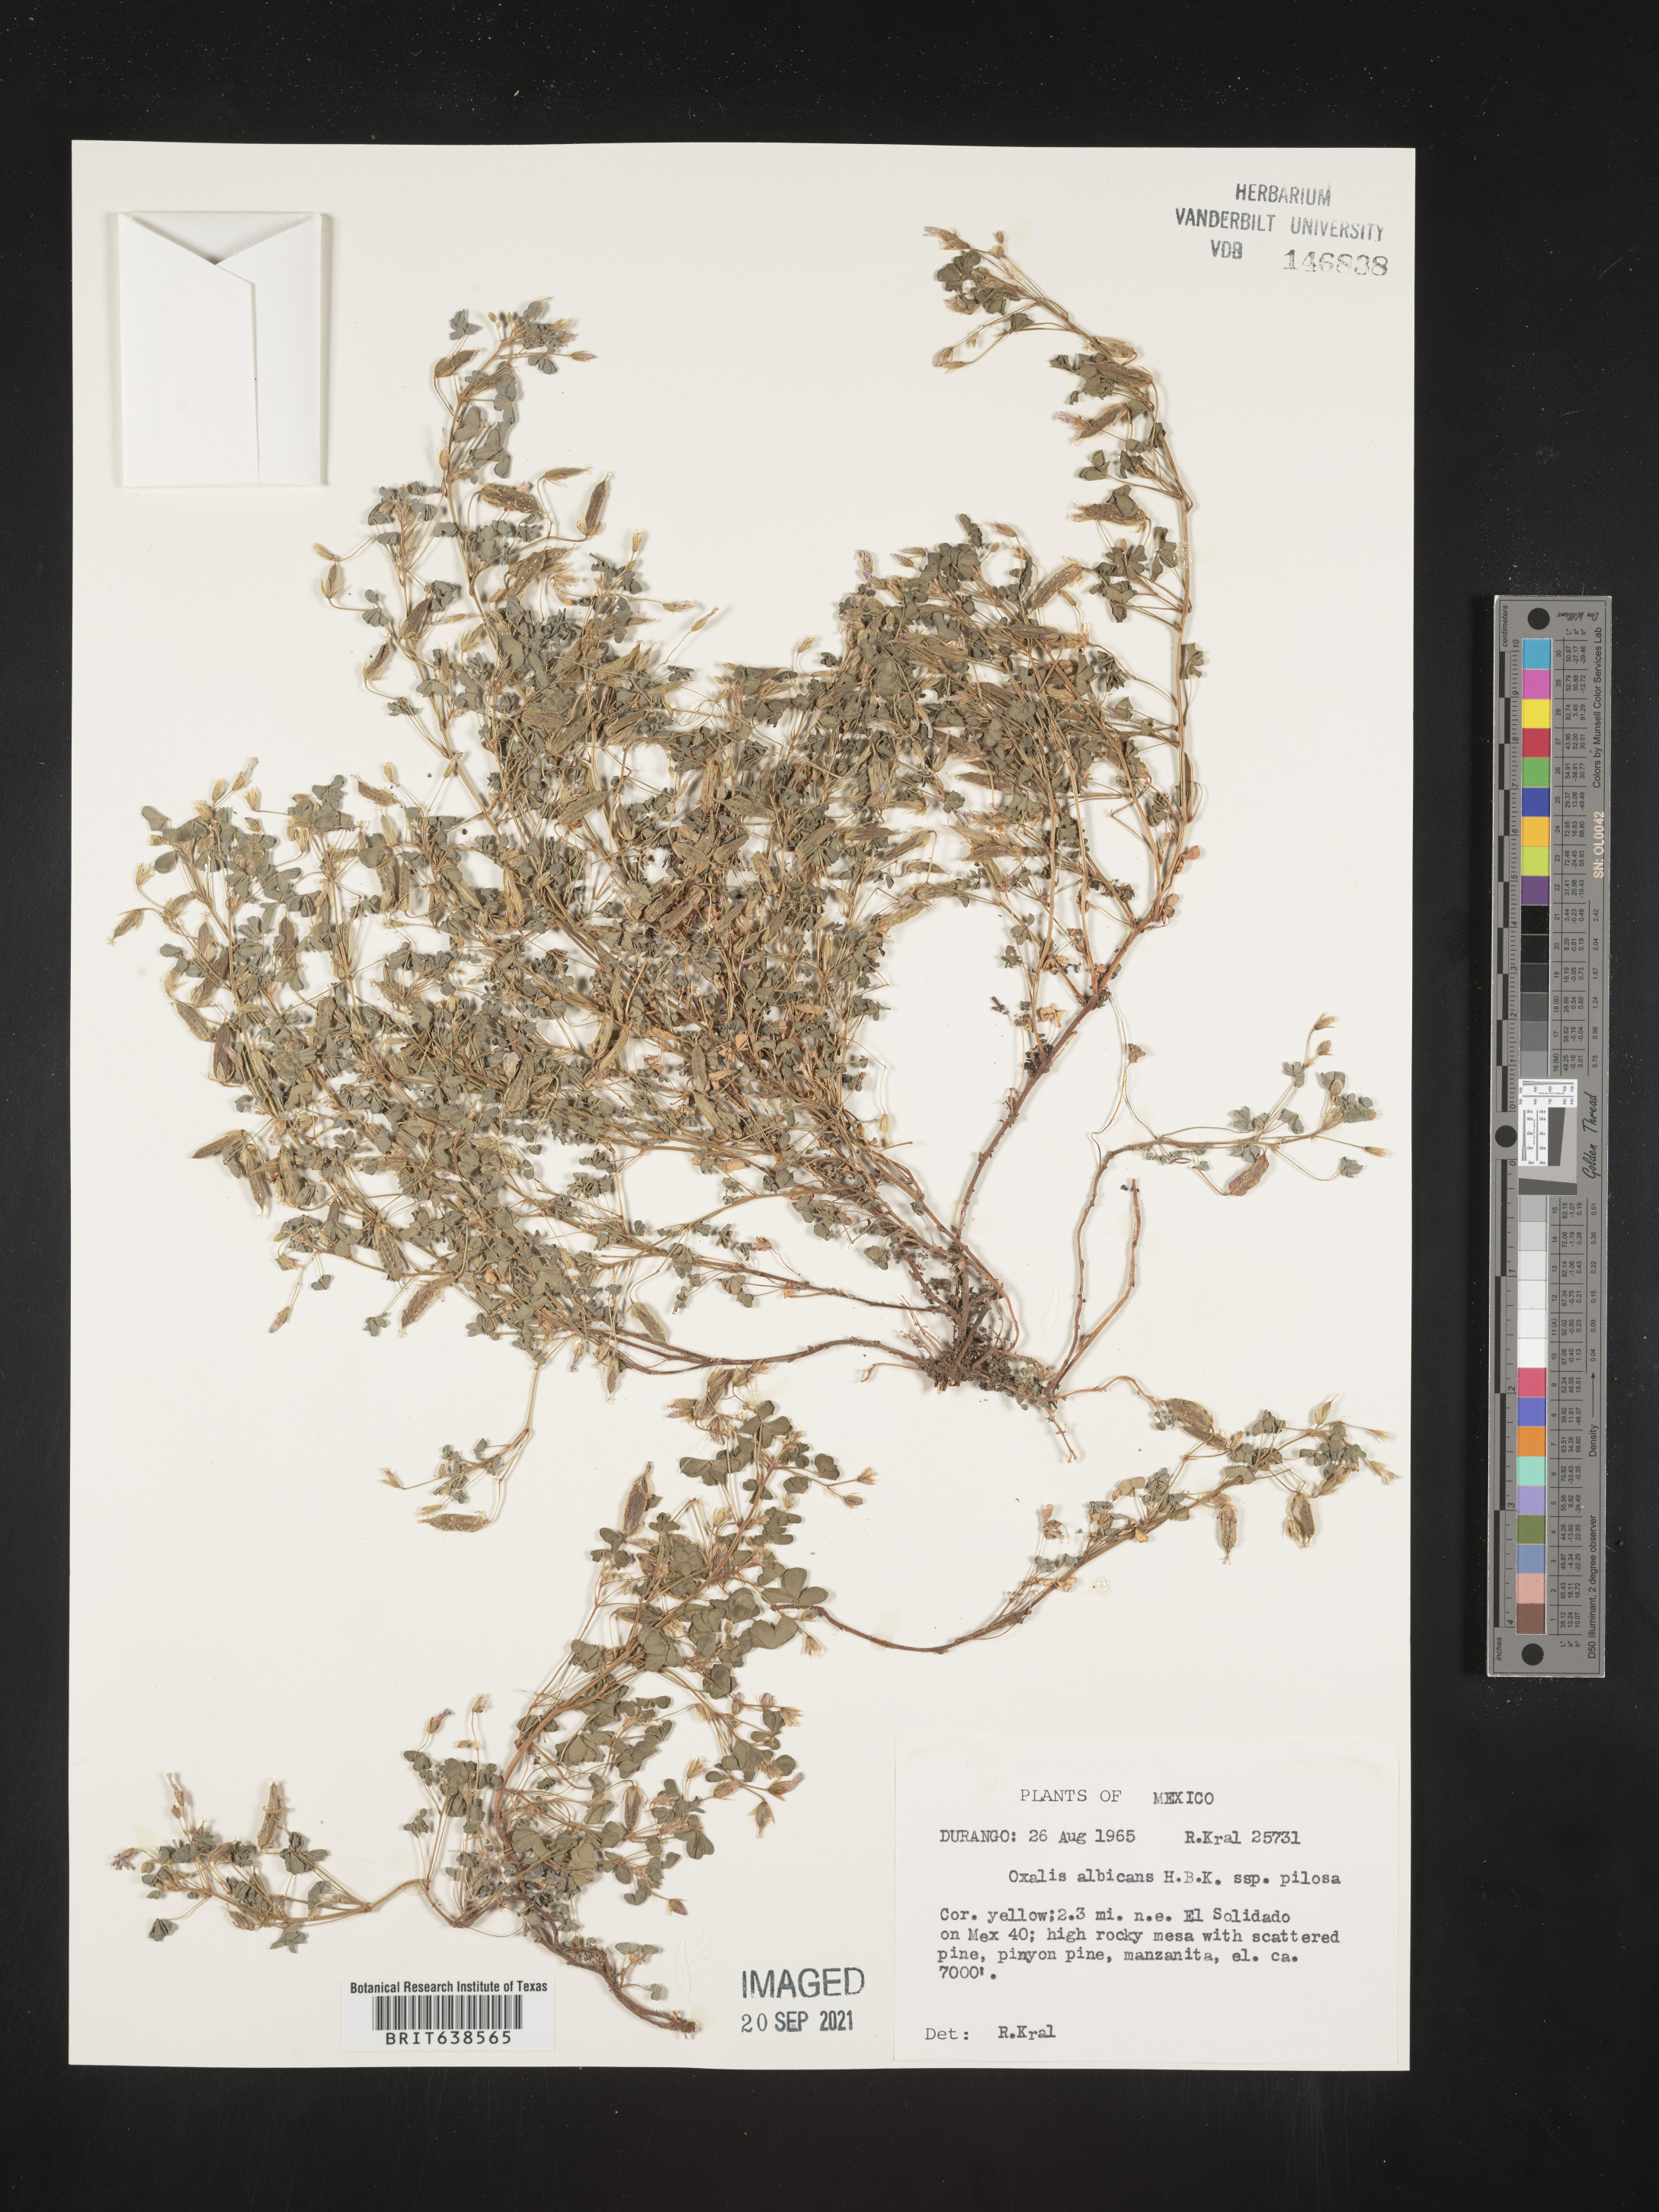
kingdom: Plantae
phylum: Tracheophyta
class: Magnoliopsida
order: Oxalidales
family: Oxalidaceae
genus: Oxalis
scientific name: Oxalis
